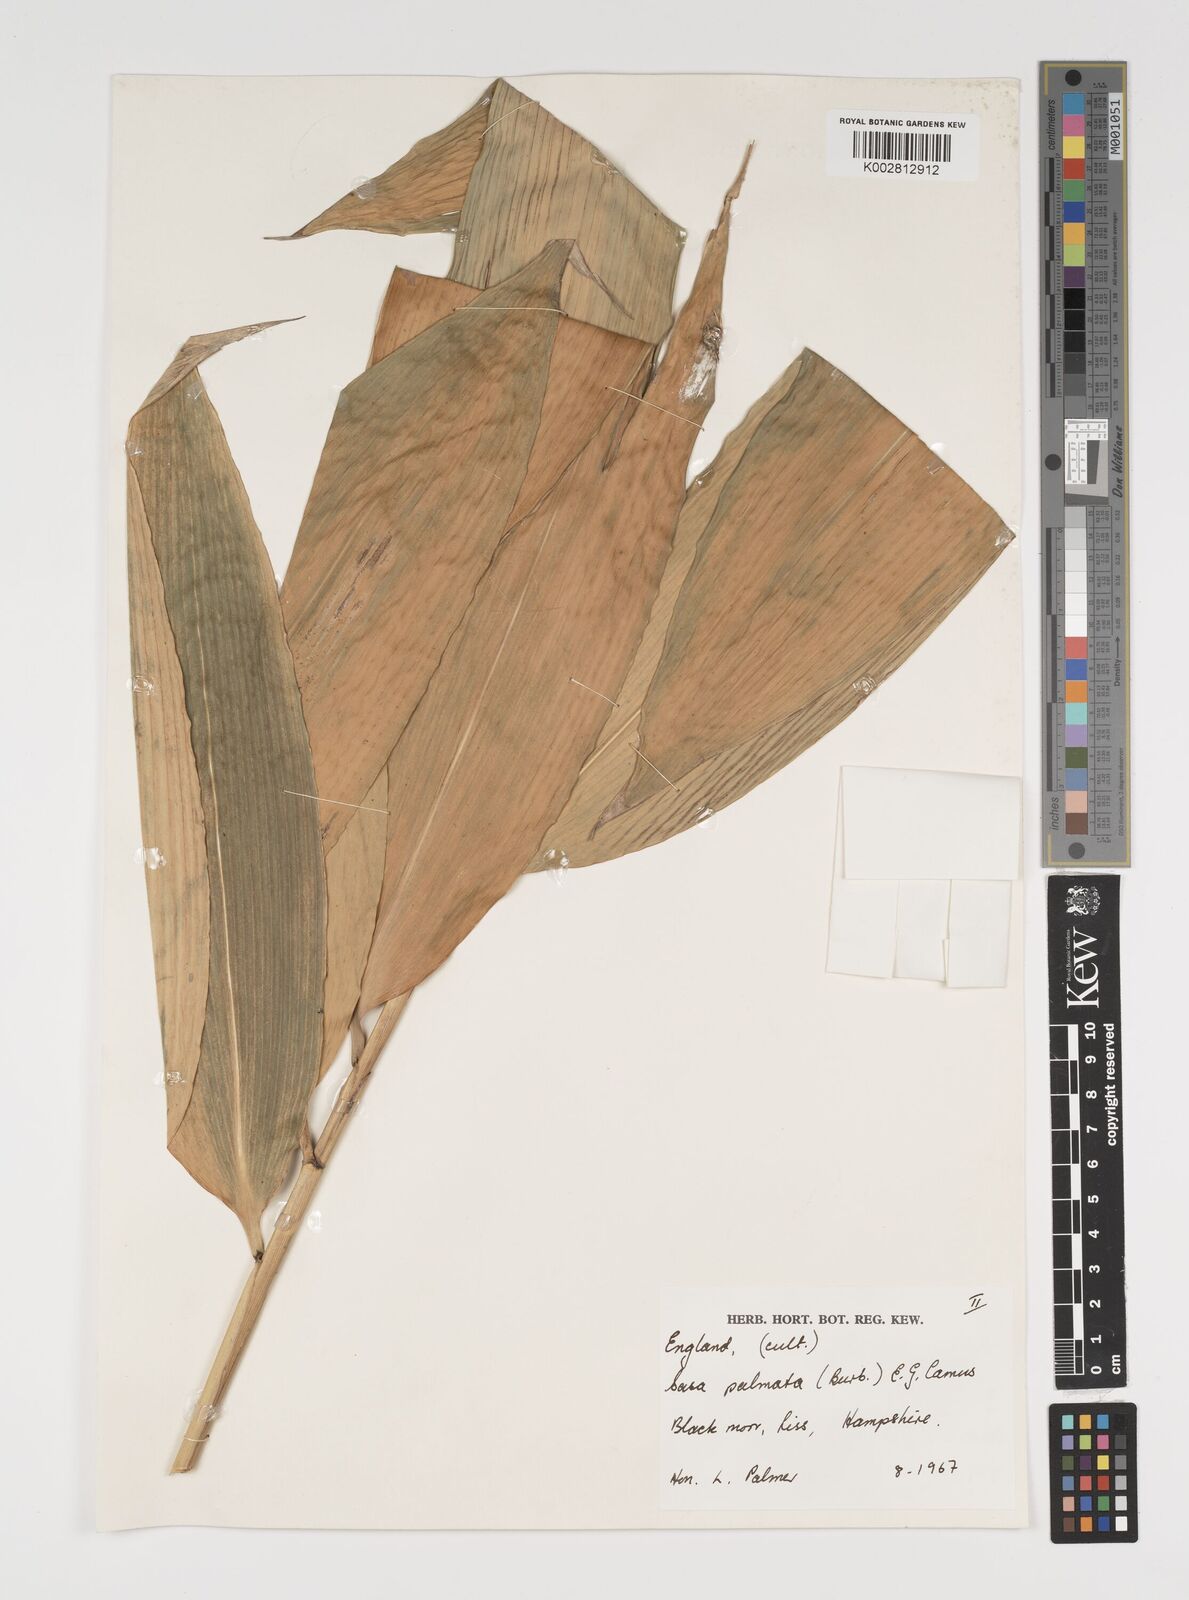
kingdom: Plantae
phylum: Tracheophyta
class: Liliopsida
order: Poales
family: Poaceae
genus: Sasa
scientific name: Sasa palmata
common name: Broad-leaved bamboo
